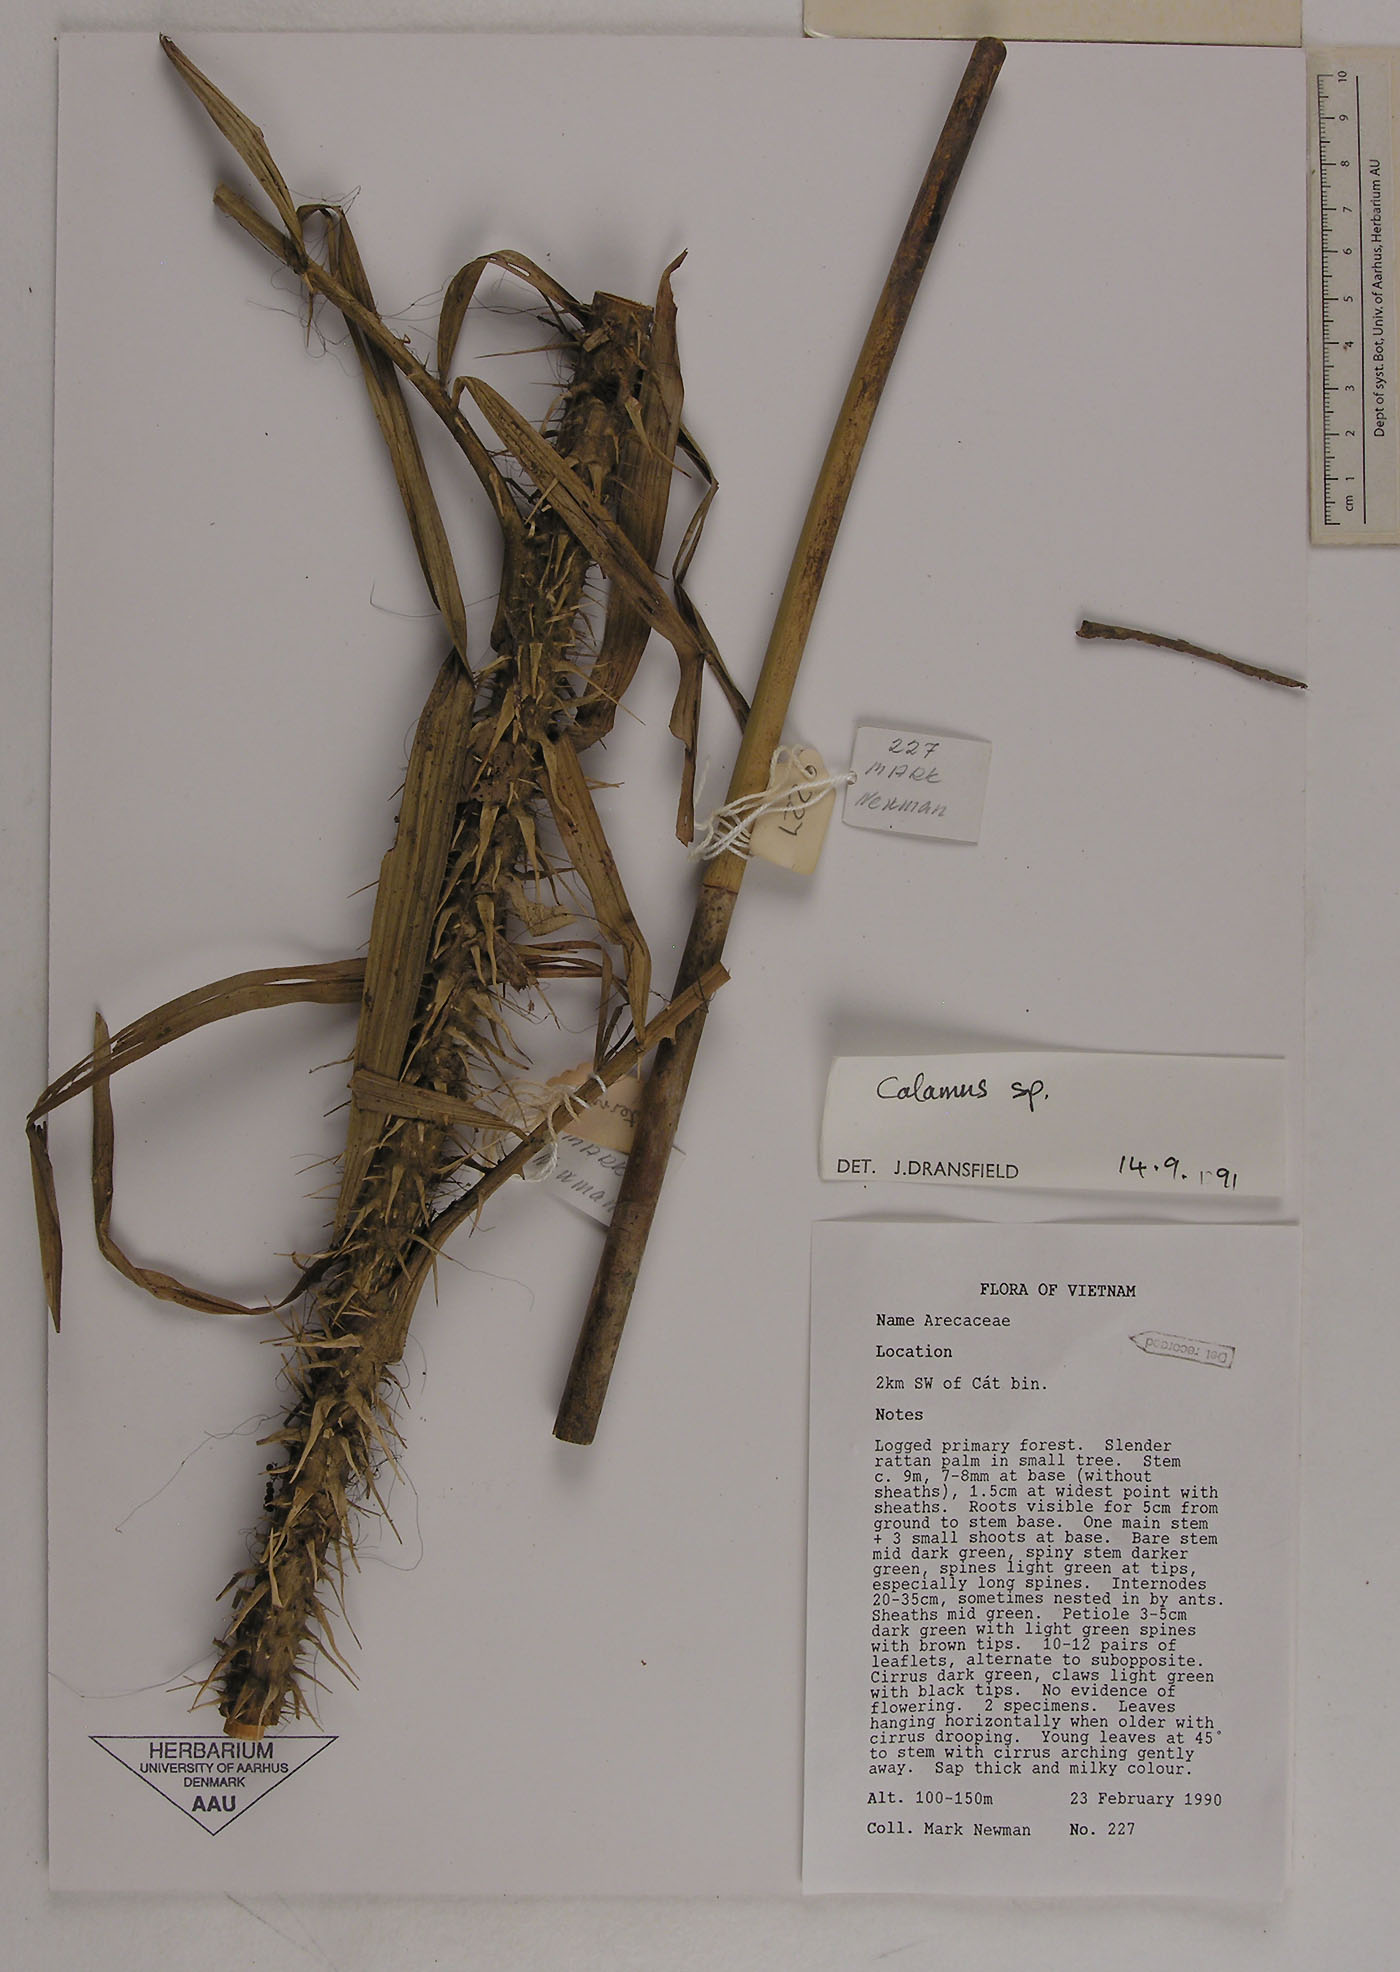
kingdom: Plantae
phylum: Tracheophyta
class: Liliopsida
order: Arecales
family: Arecaceae
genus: Calamus
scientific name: Calamus latifolius
